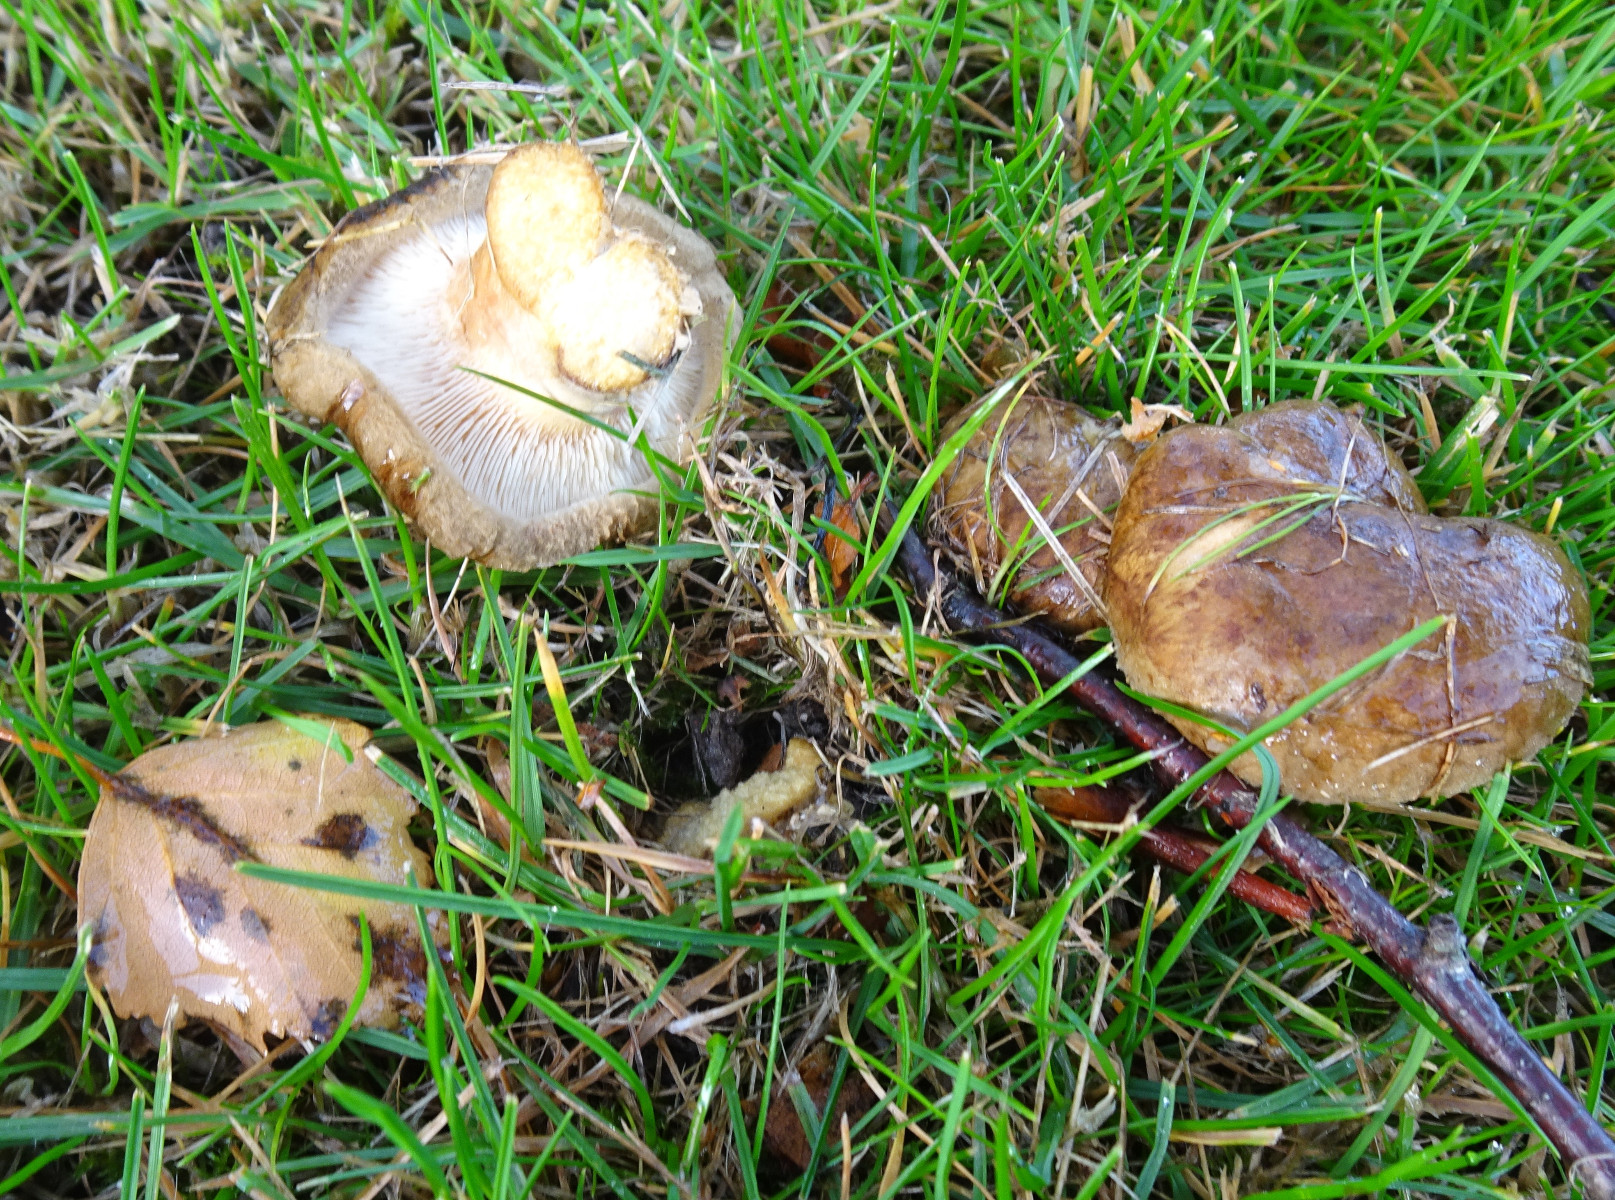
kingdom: Fungi
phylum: Basidiomycota
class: Agaricomycetes
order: Boletales
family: Paxillaceae
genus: Paxillus
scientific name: Paxillus involutus
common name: almindelig netbladhat
